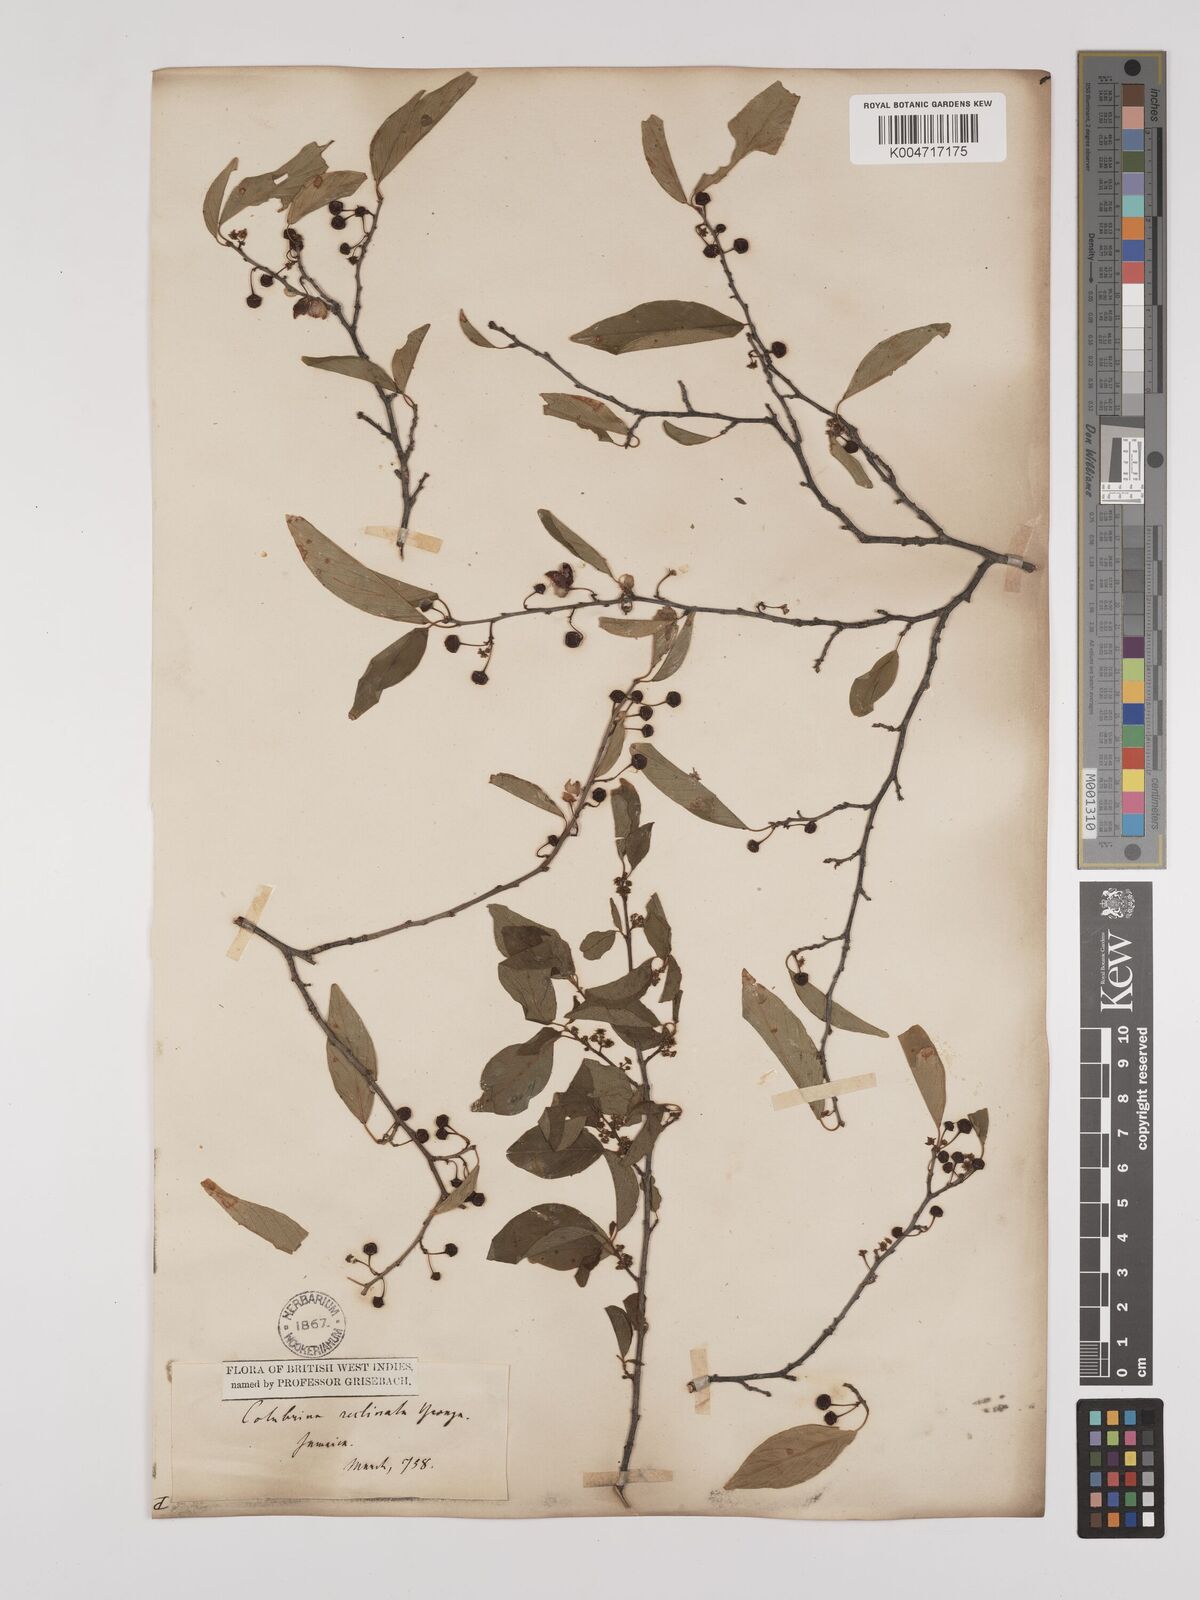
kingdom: Plantae
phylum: Tracheophyta
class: Magnoliopsida
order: Rosales
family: Rhamnaceae
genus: Colubrina
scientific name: Colubrina elliptica
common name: Soldierwood
